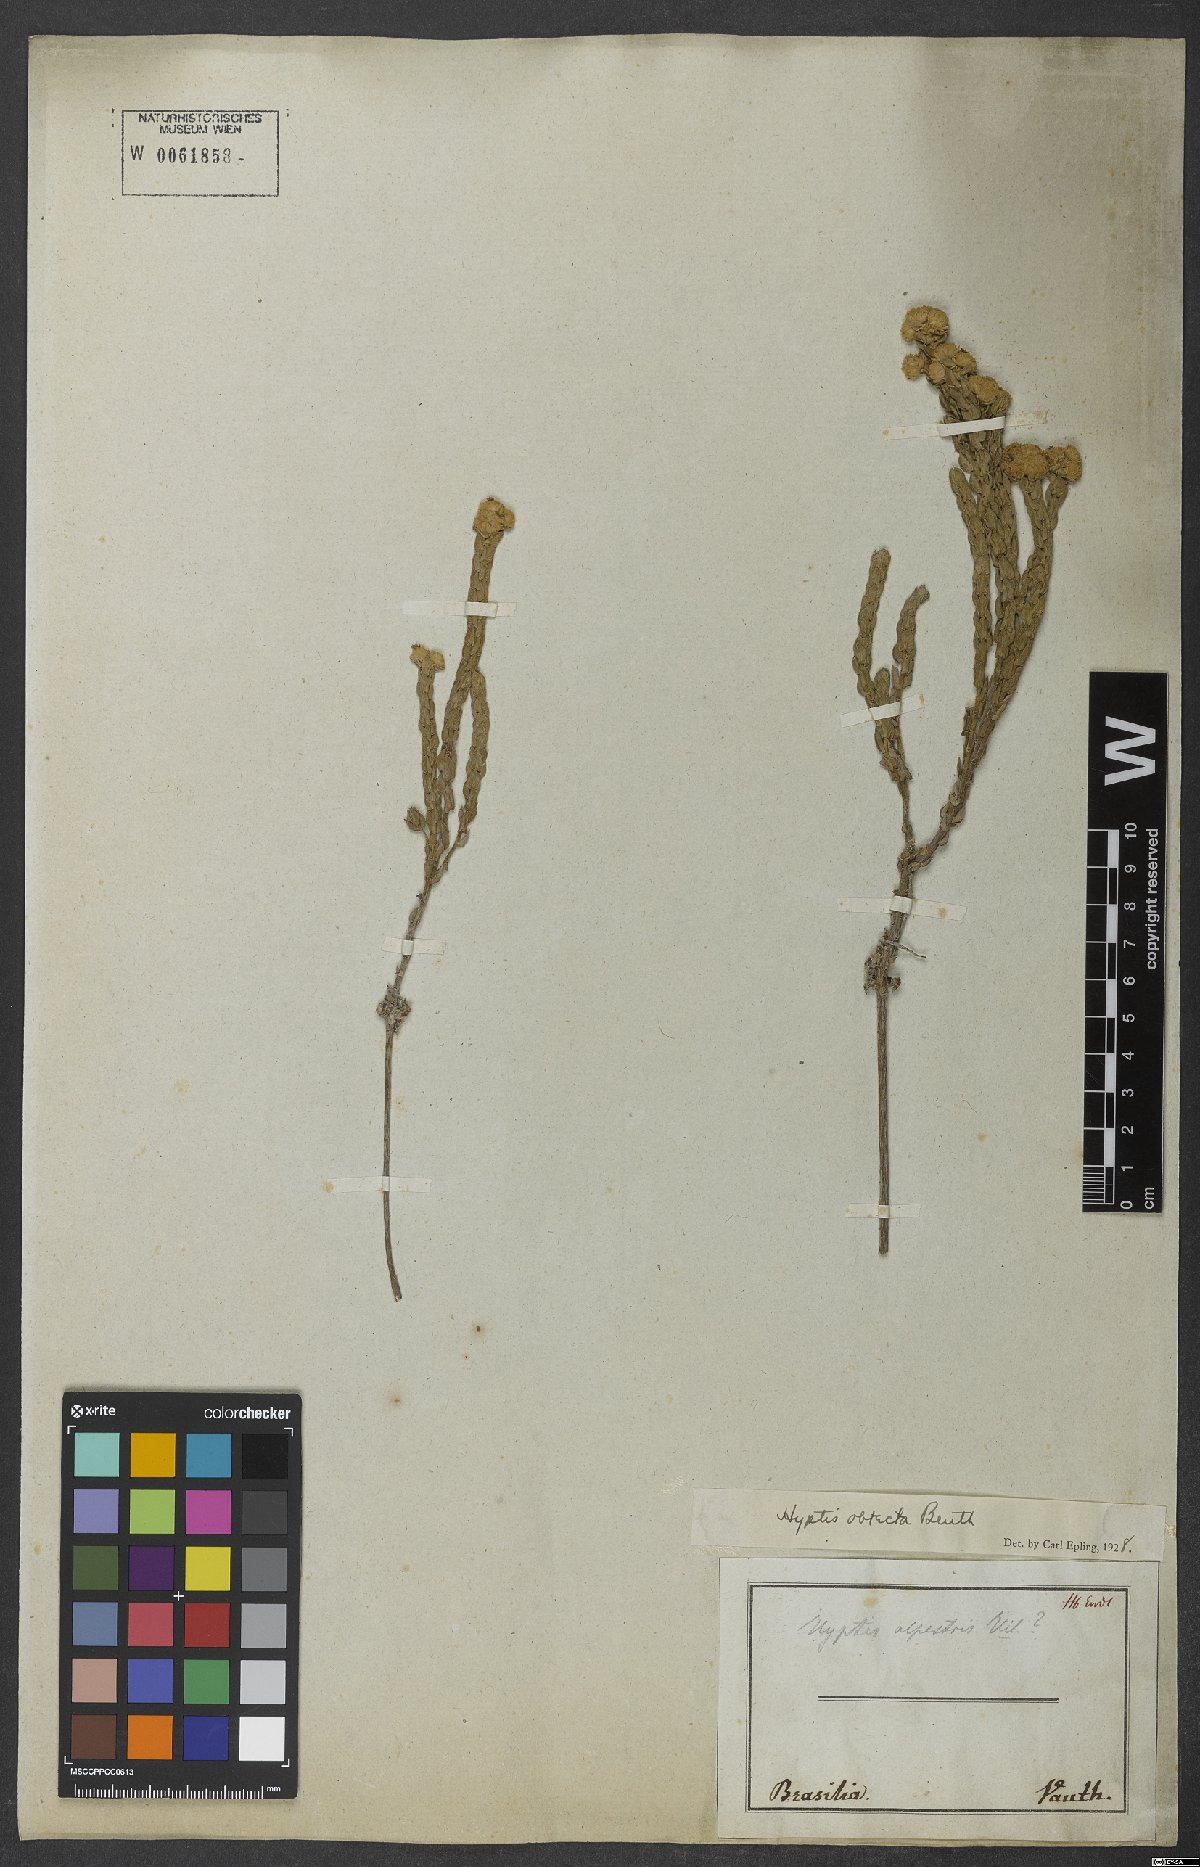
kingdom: Plantae
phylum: Tracheophyta
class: Magnoliopsida
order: Lamiales
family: Lamiaceae
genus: Hyptis
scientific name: Hyptis obtecta
